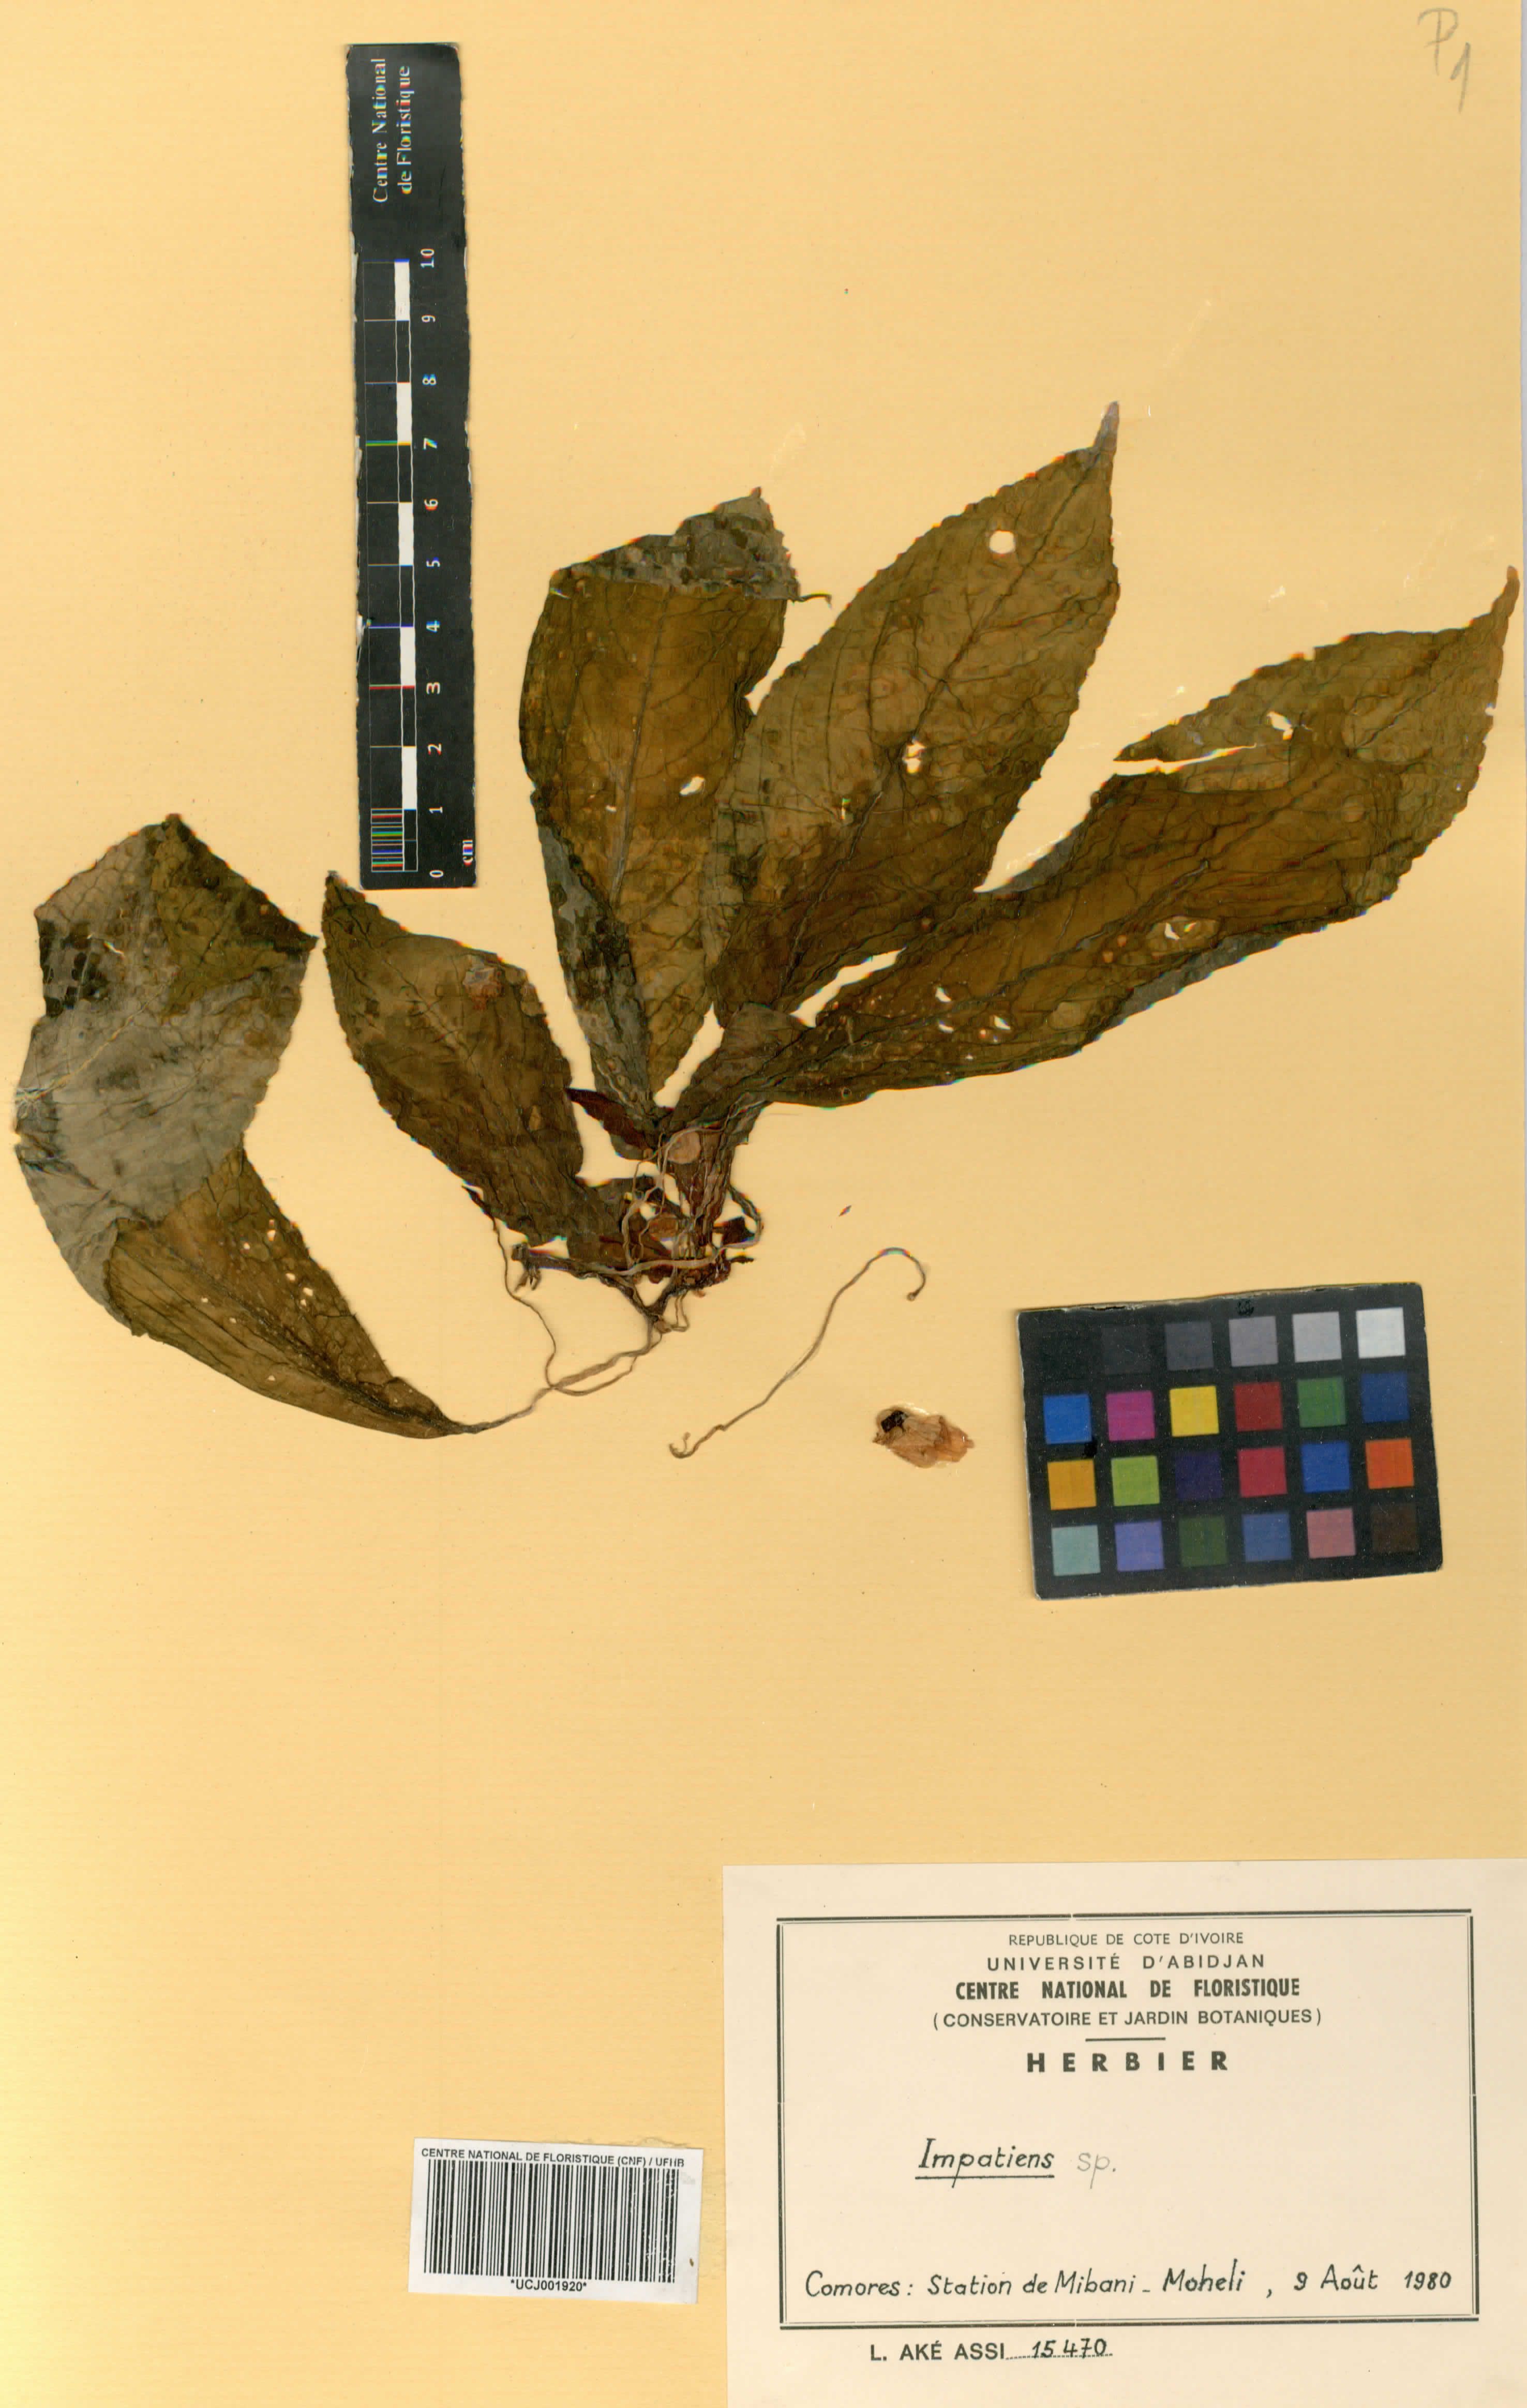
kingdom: Plantae
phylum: Tracheophyta
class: Magnoliopsida
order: Ericales
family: Balsaminaceae
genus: Impatiens
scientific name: Impatiens
